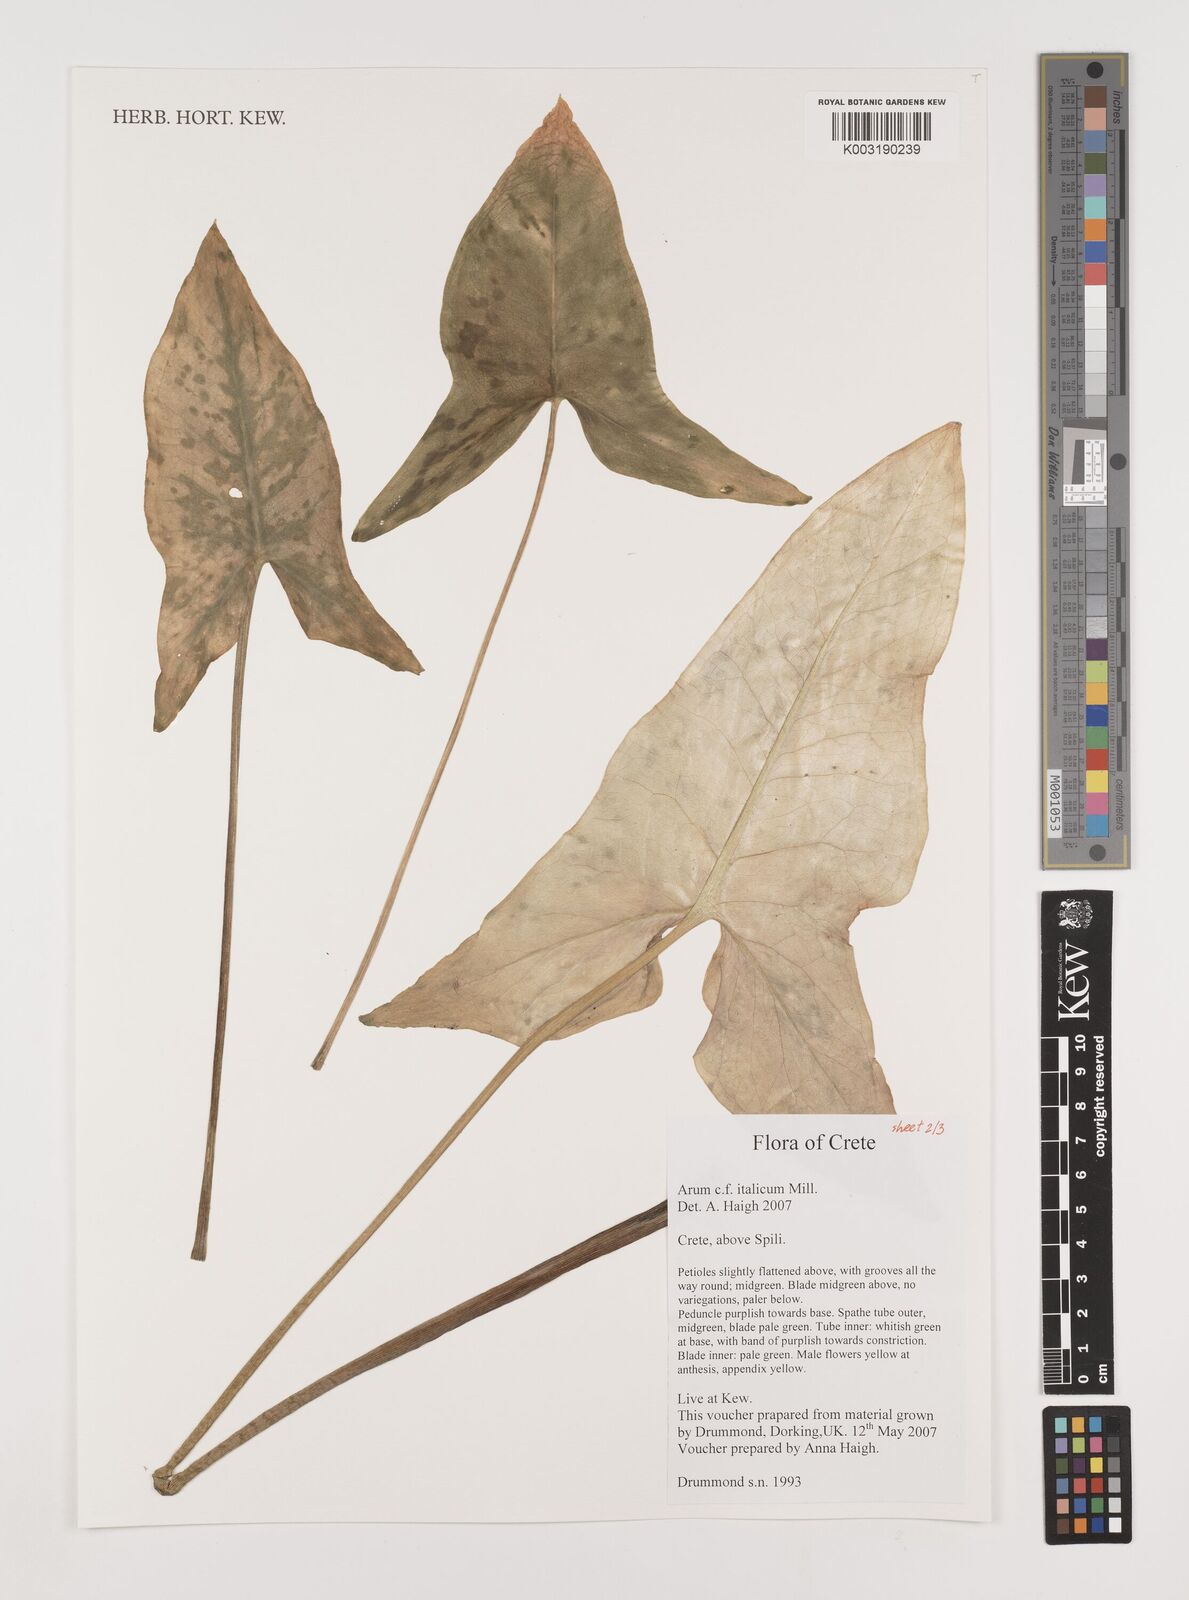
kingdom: Plantae
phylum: Tracheophyta
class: Liliopsida
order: Alismatales
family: Araceae
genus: Arum
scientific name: Arum italicum
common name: Italian lords-and-ladies
